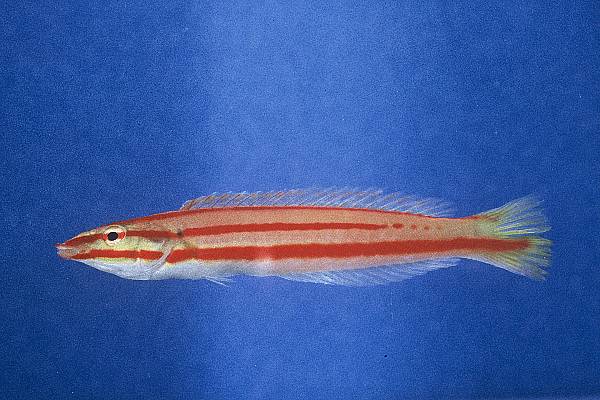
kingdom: Animalia
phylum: Chordata
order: Perciformes
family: Labridae
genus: Hologymnosus
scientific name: Hologymnosus doliatus
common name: Pastel ringwrasse
